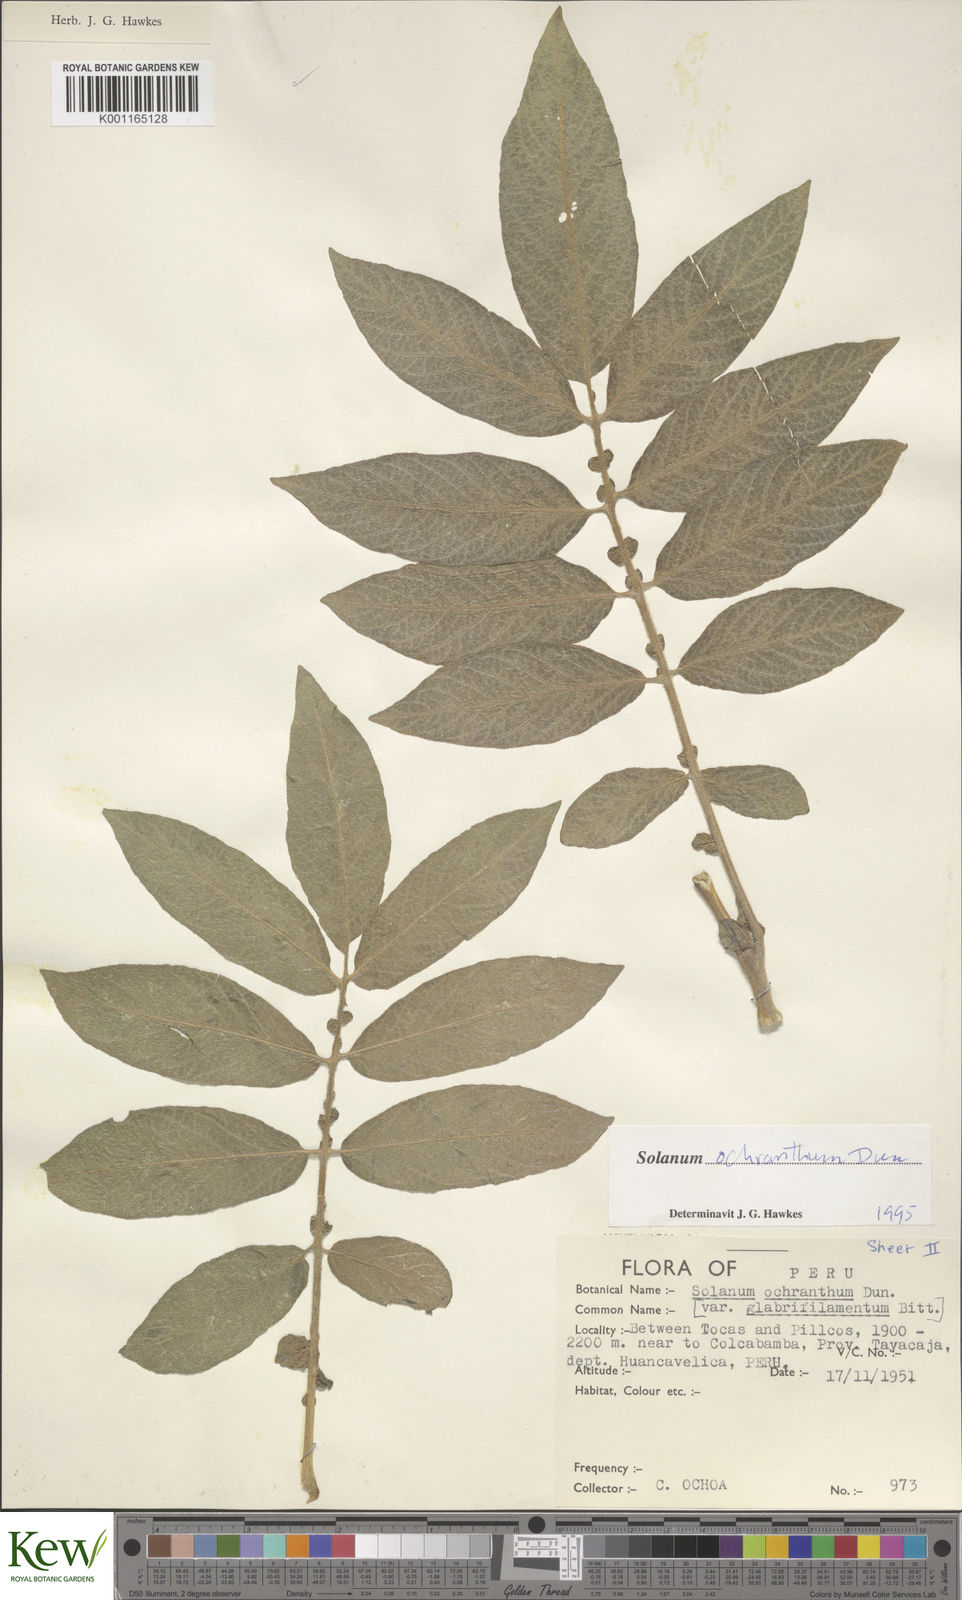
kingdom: Plantae
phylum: Tracheophyta
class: Magnoliopsida
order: Solanales
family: Solanaceae
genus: Solanum
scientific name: Solanum ochranthum
